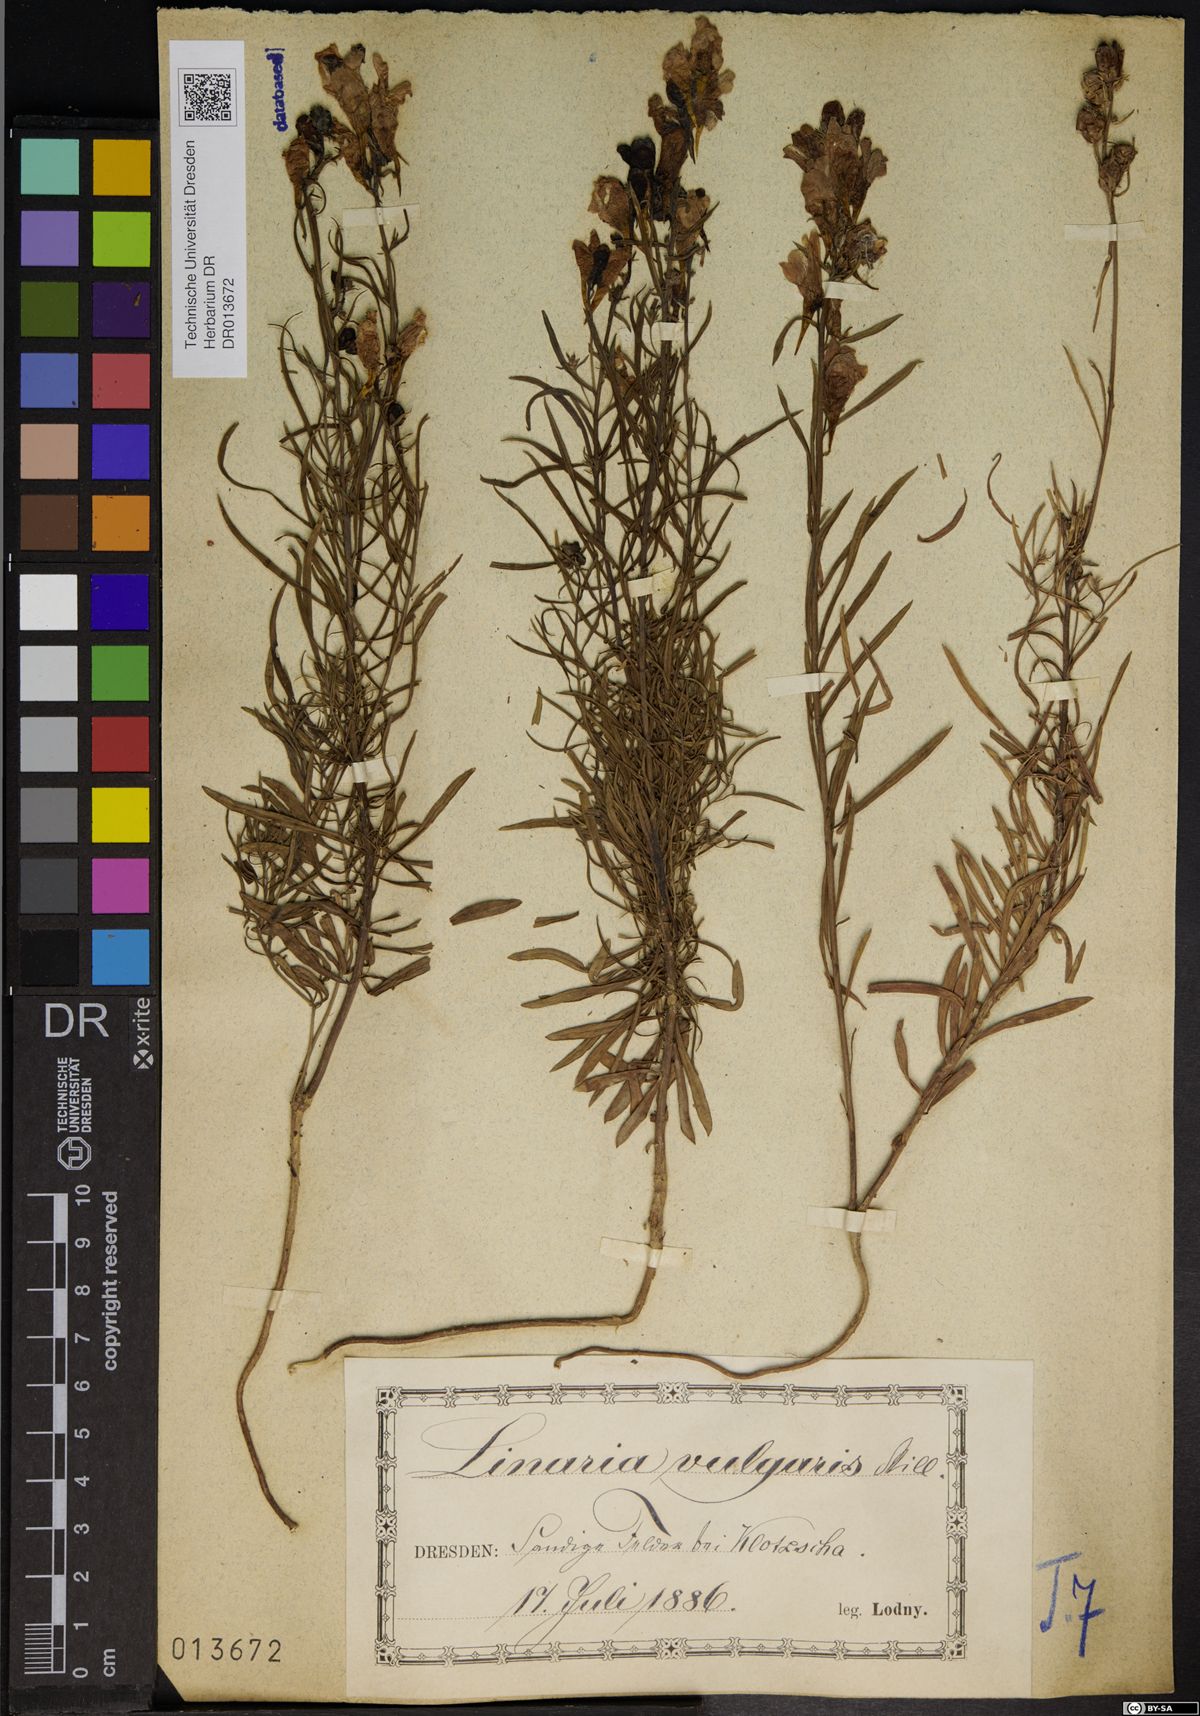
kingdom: Plantae
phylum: Tracheophyta
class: Magnoliopsida
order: Lamiales
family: Plantaginaceae
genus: Linaria
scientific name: Linaria vulgaris
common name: Butter and eggs
